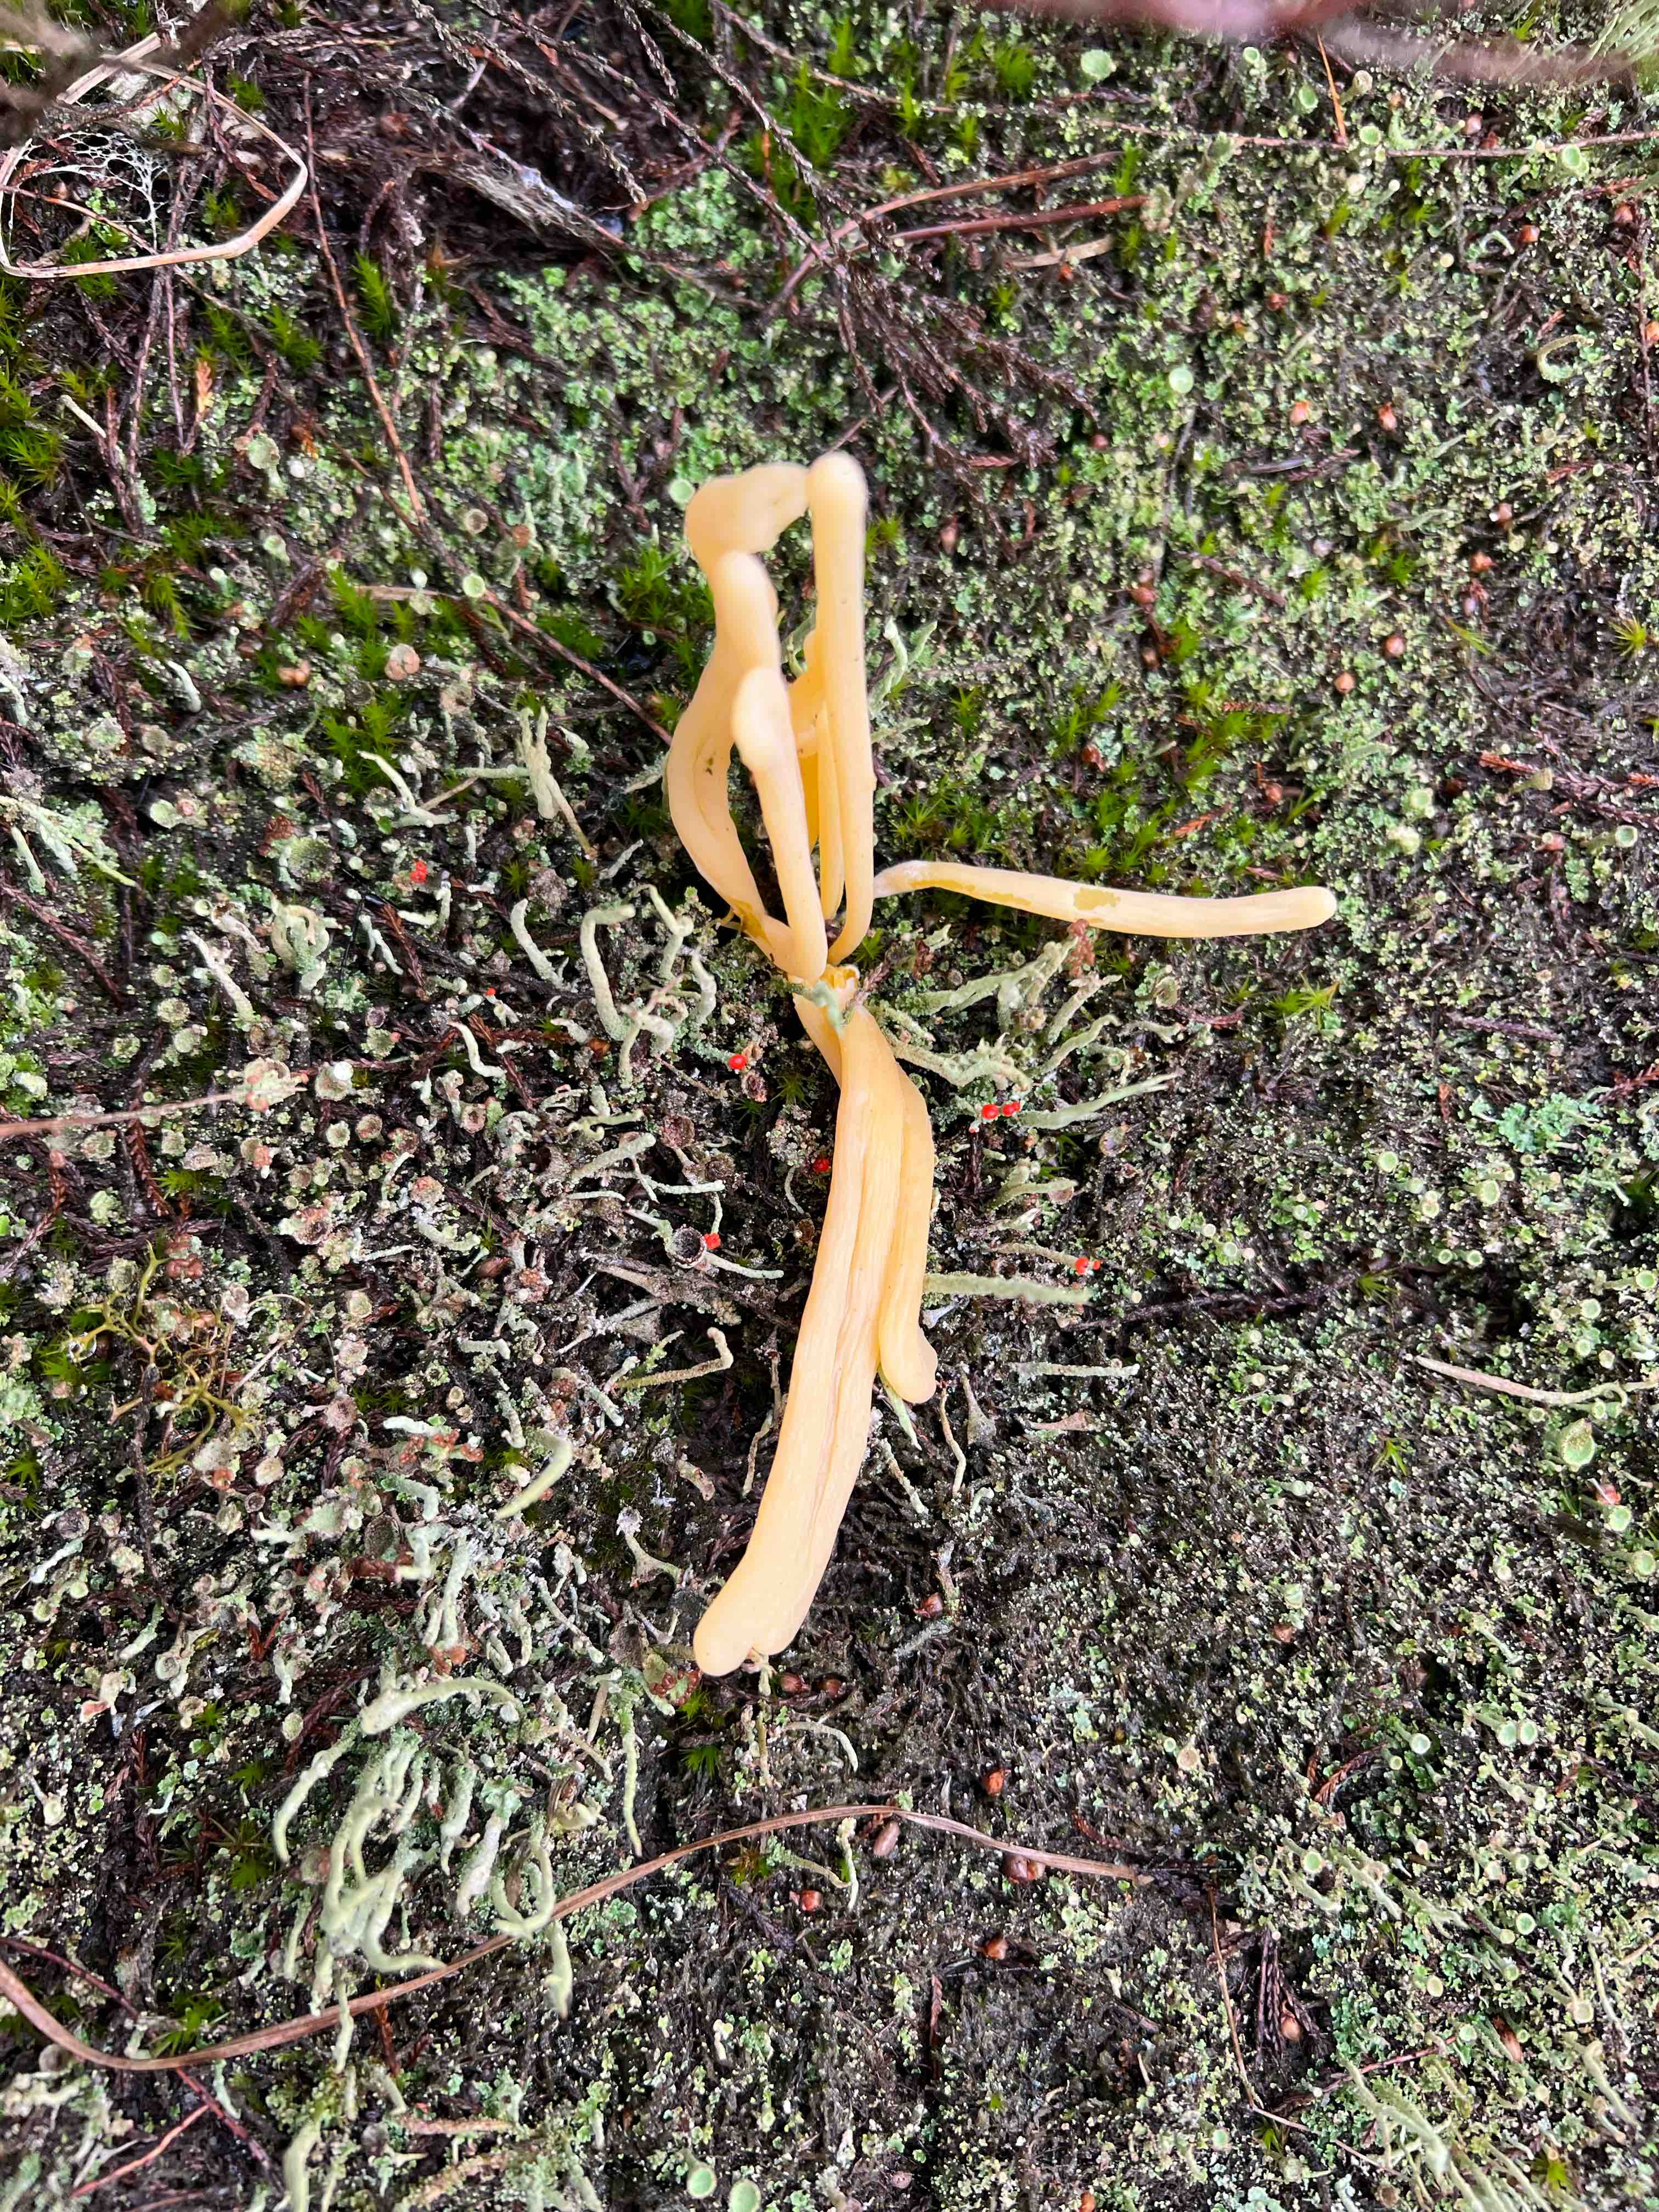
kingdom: Fungi
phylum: Basidiomycota
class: Agaricomycetes
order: Agaricales
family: Clavariaceae
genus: Clavaria
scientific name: Clavaria argillacea
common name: lerfarvet køllesvamp
